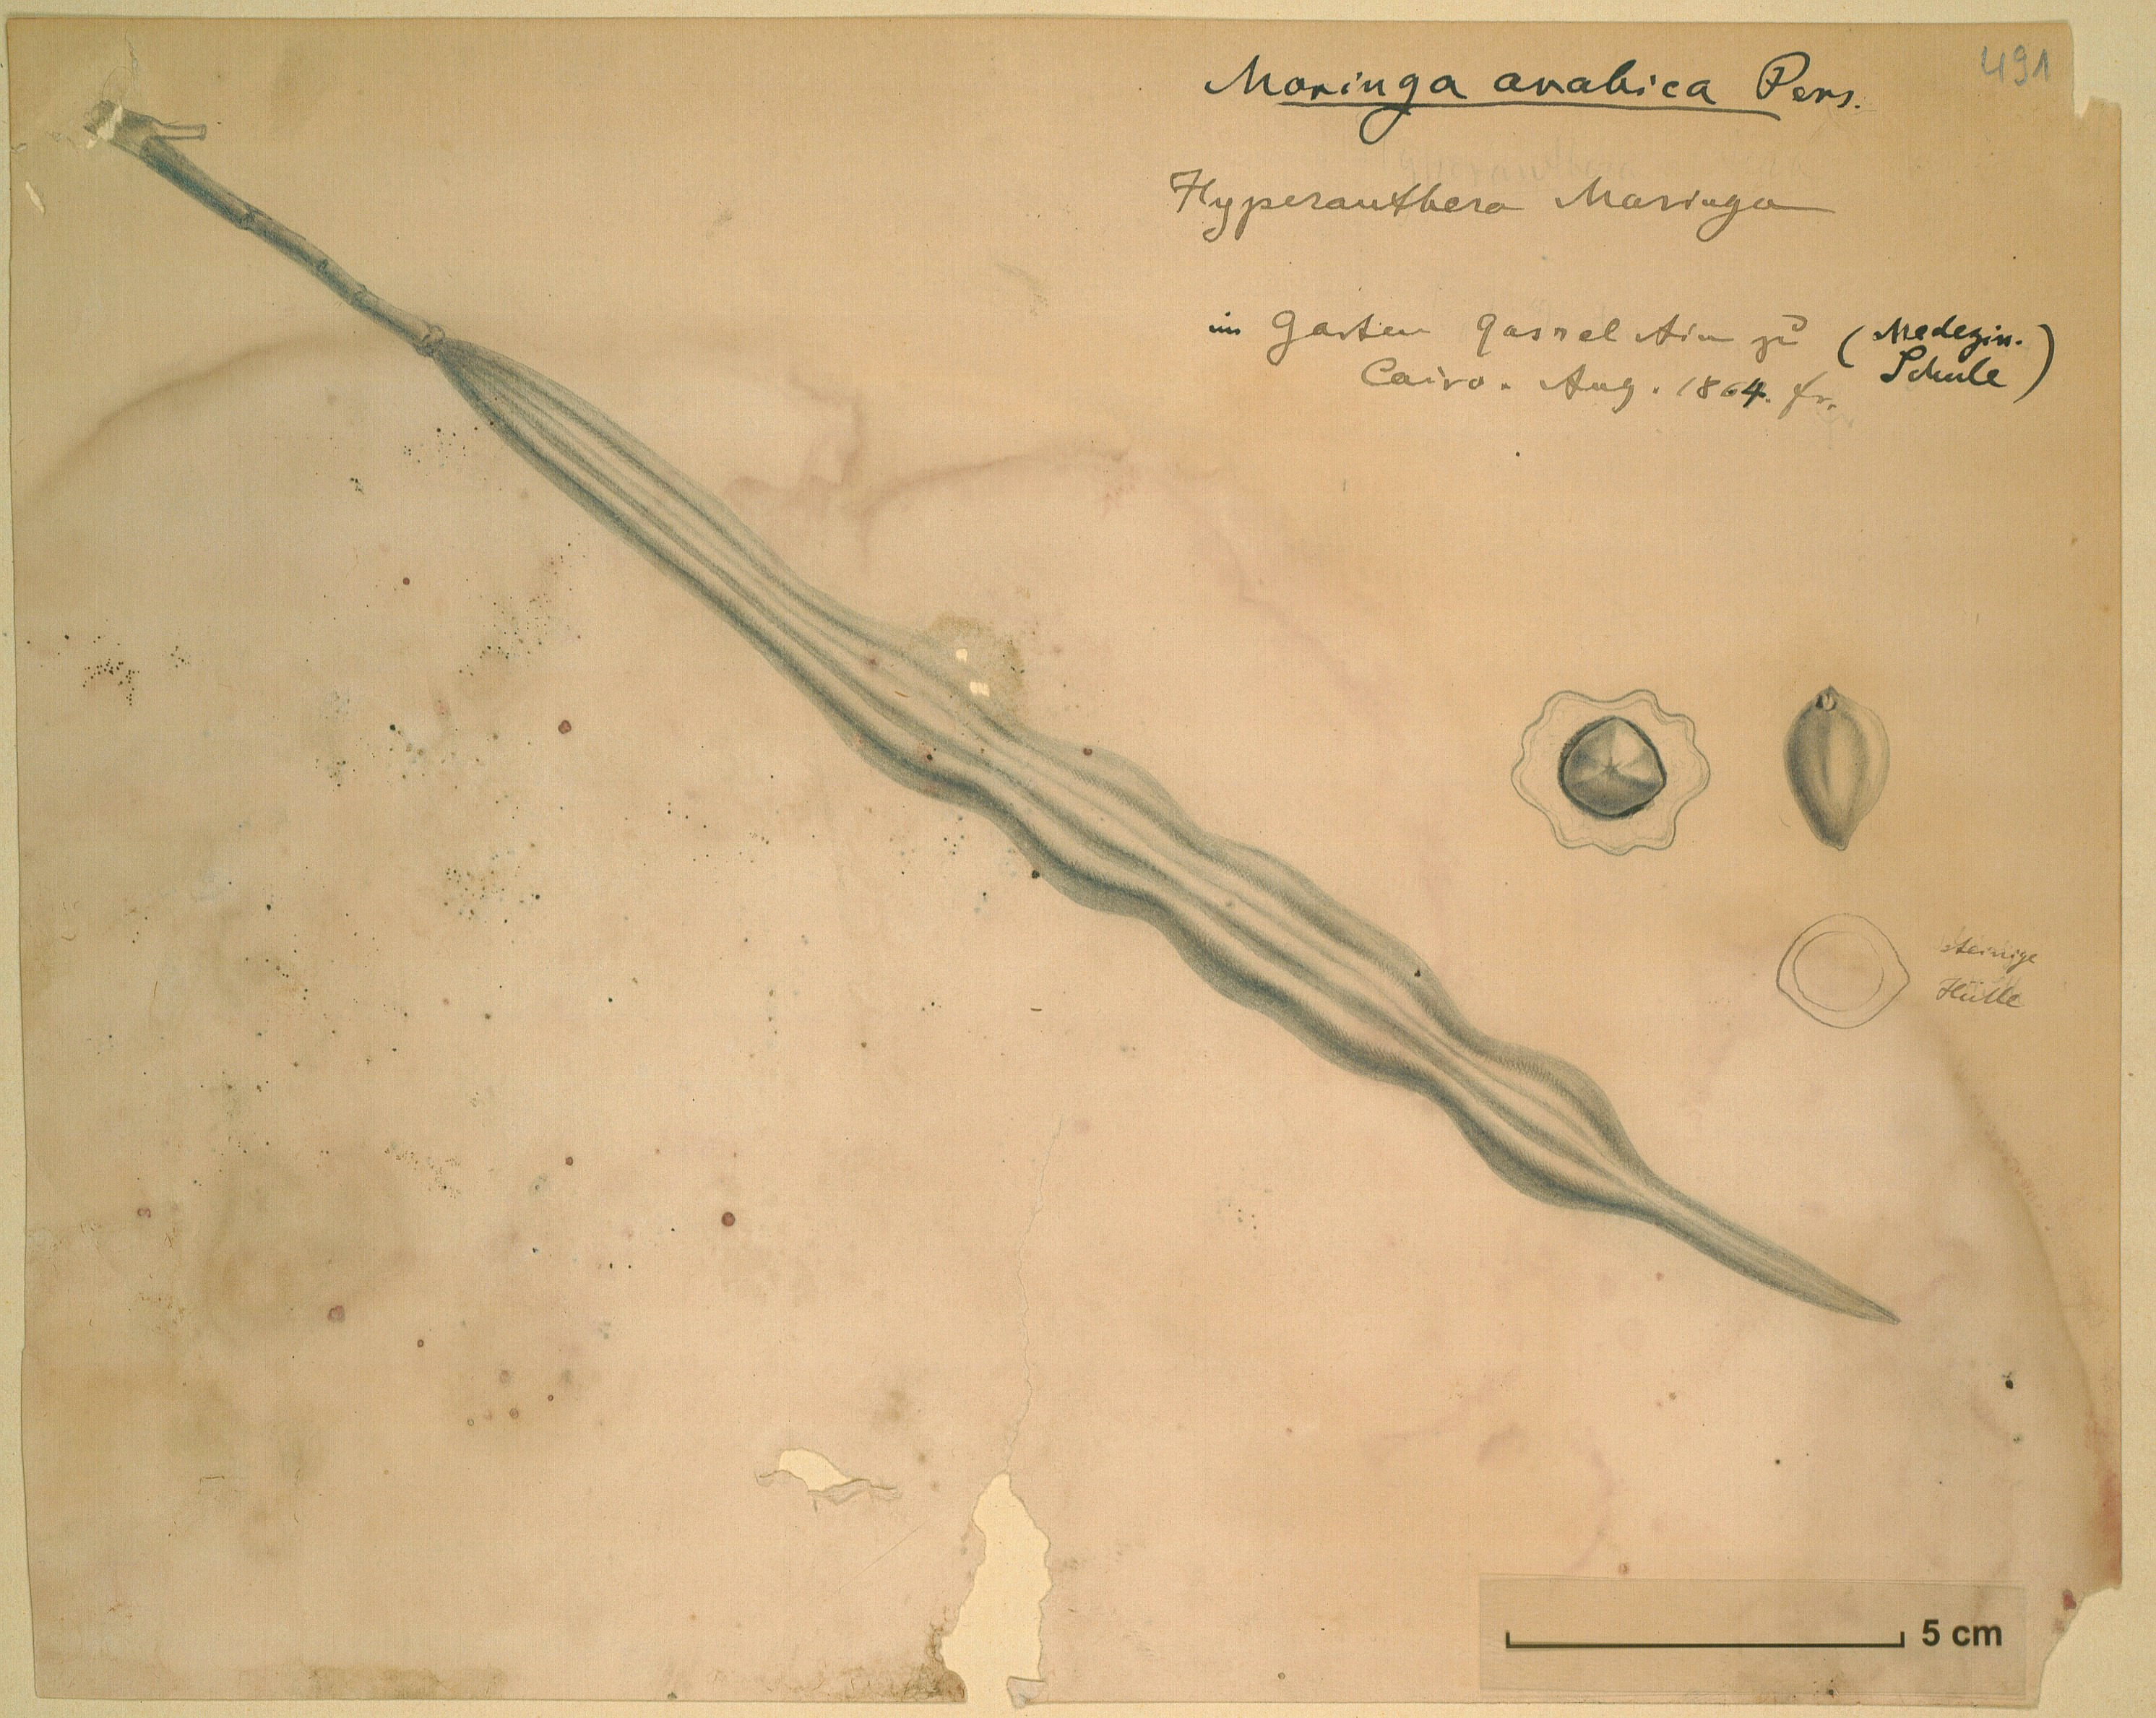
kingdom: Plantae
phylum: Tracheophyta
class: Magnoliopsida
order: Brassicales
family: Moringaceae
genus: Moringa
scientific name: Moringa peregrina
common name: Wild drumstick tree
